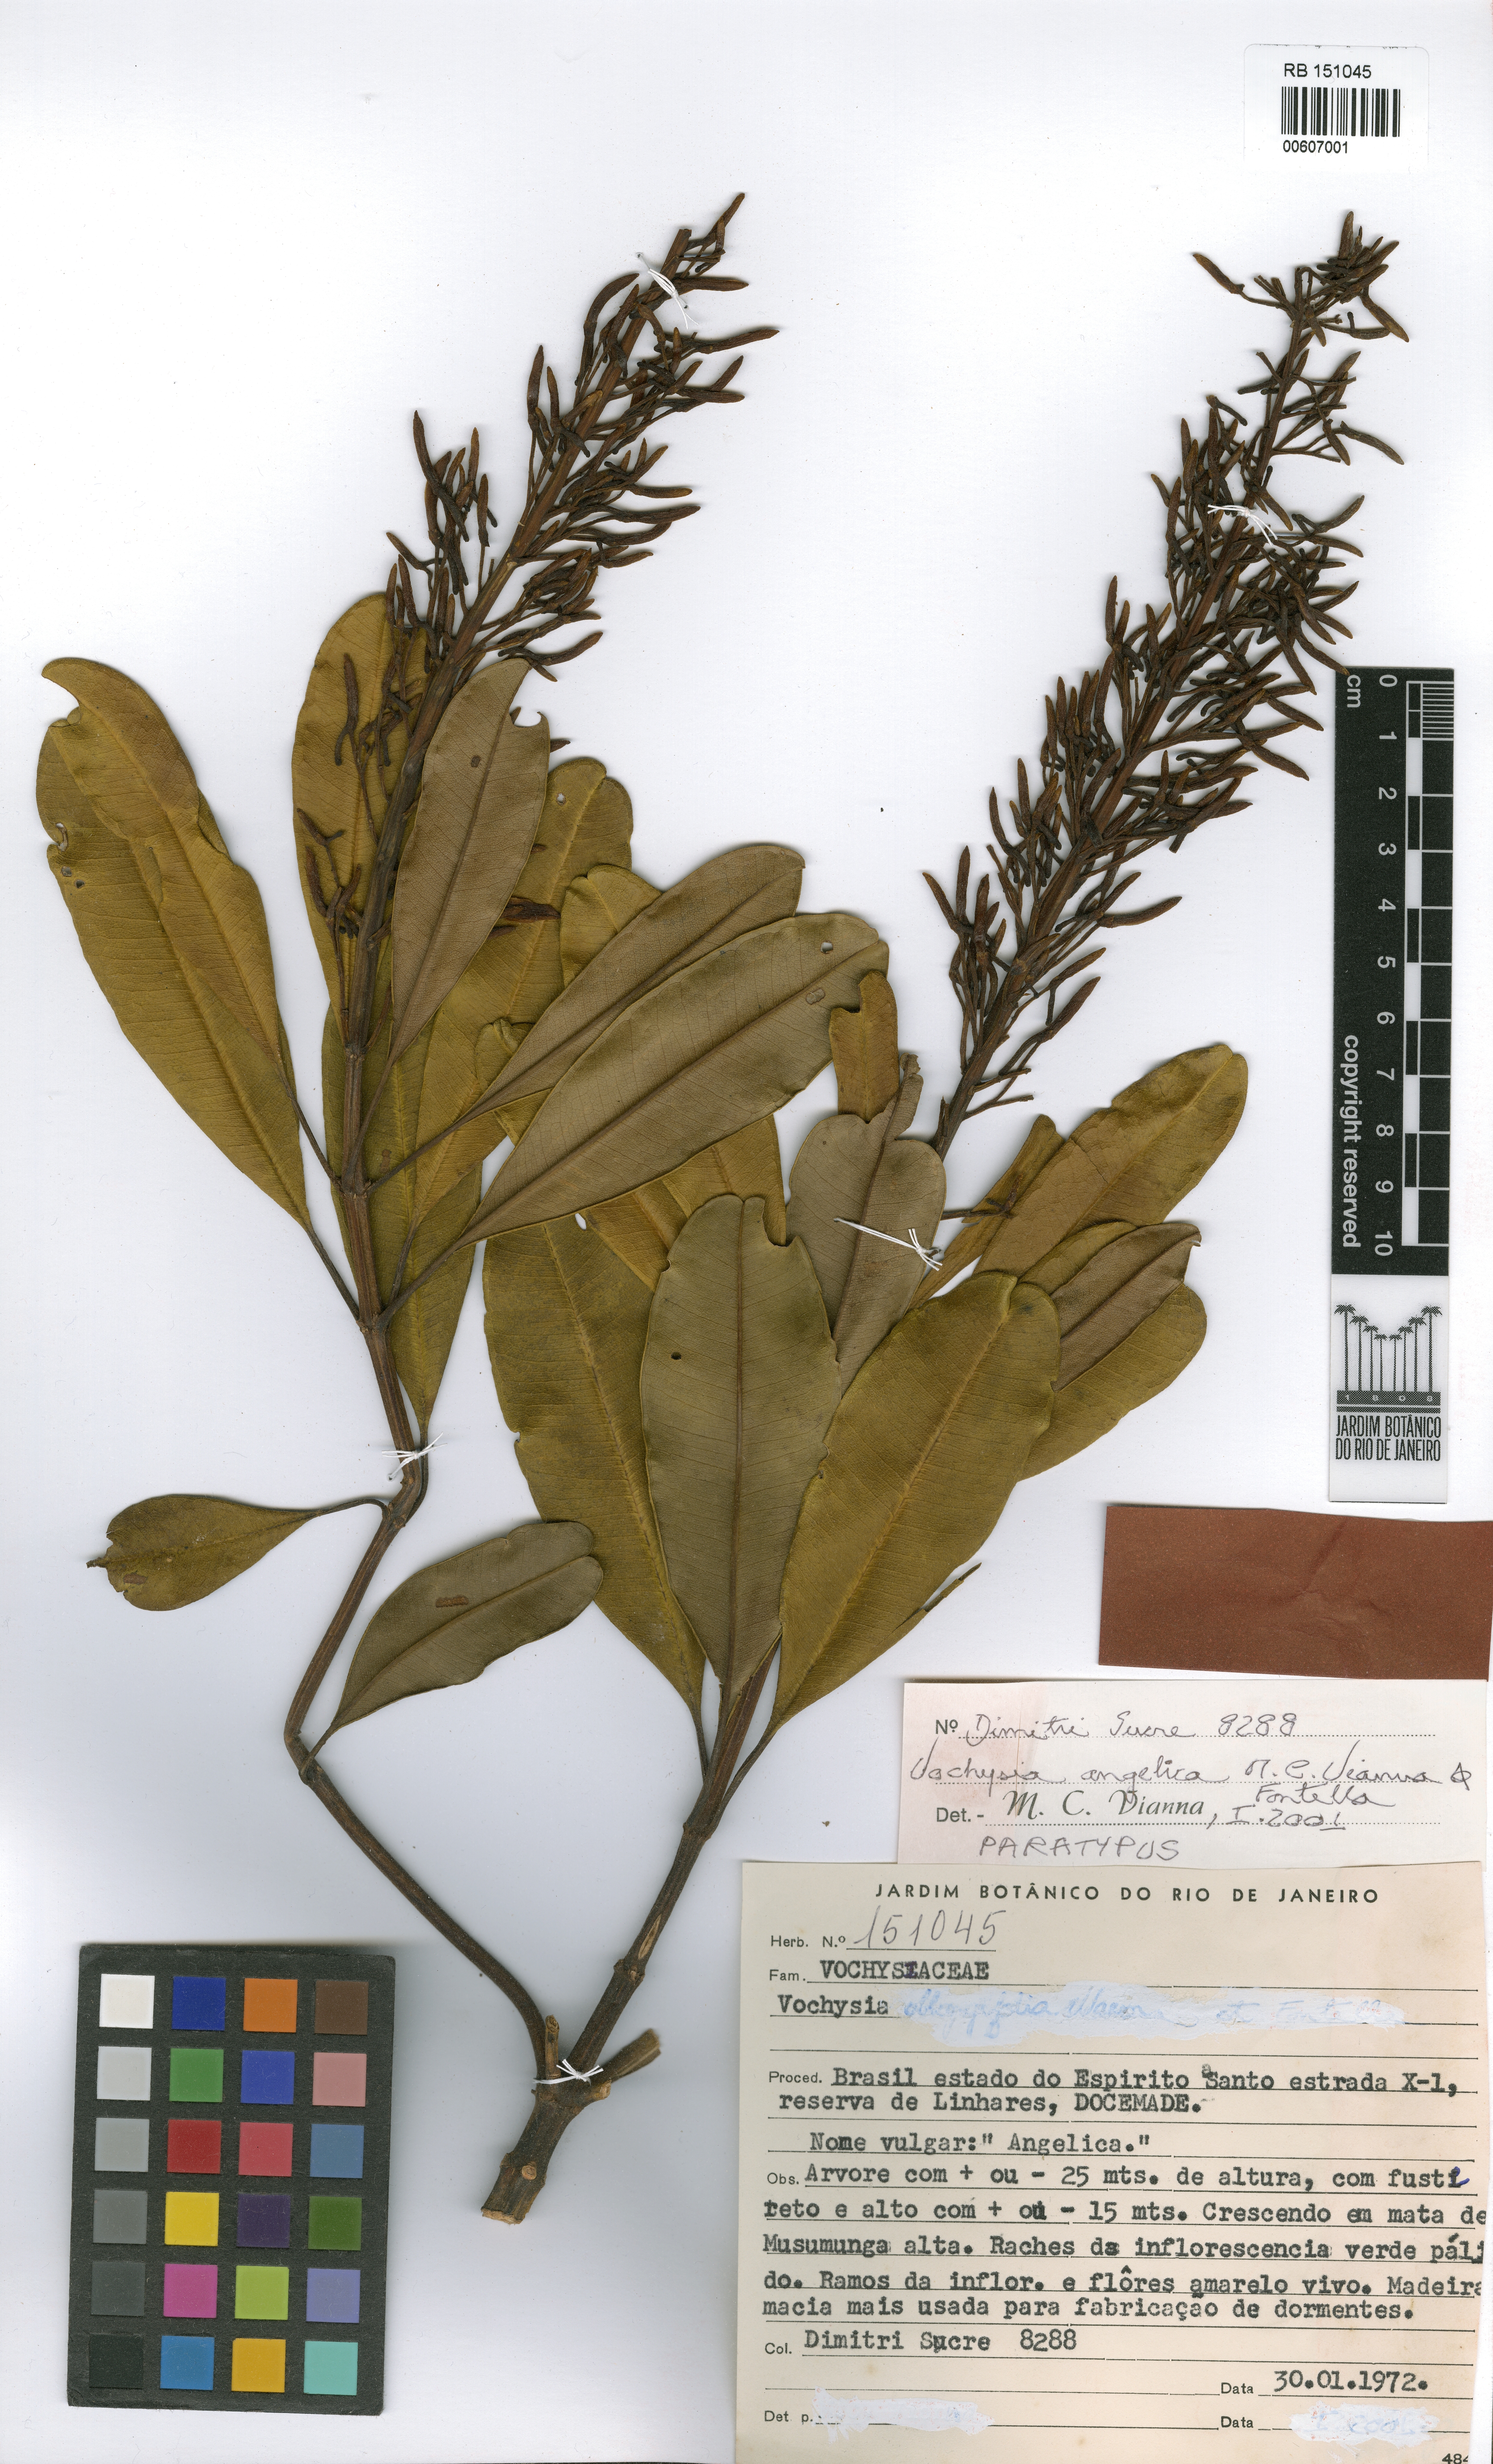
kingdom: Plantae
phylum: Tracheophyta
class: Magnoliopsida
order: Myrtales
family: Vochysiaceae
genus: Vochysia
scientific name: Vochysia angelica
